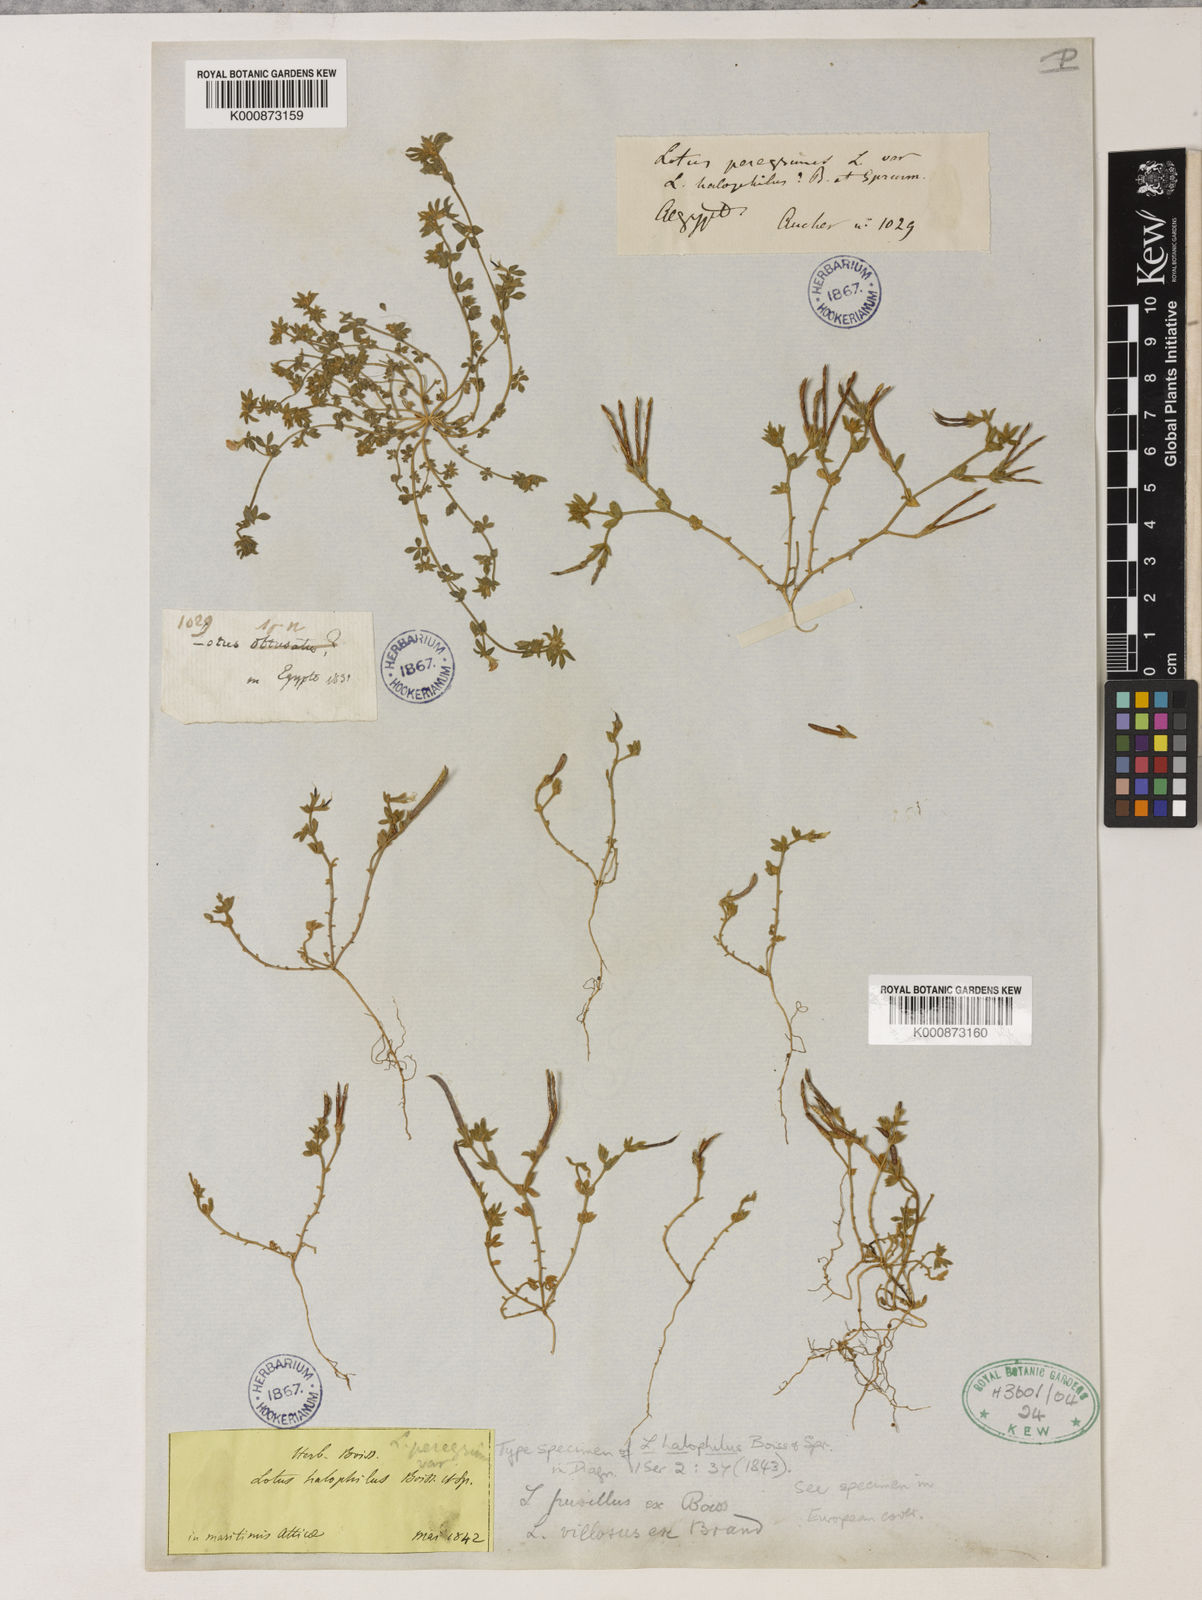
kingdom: Plantae
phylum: Tracheophyta
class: Magnoliopsida
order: Fabales
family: Fabaceae
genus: Lotus
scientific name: Lotus halophilus
